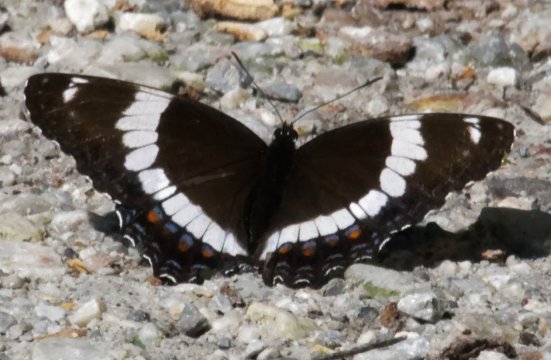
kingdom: Animalia
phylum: Arthropoda
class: Insecta
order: Lepidoptera
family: Nymphalidae
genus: Limenitis
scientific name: Limenitis arthemis
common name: Red-spotted Admiral
